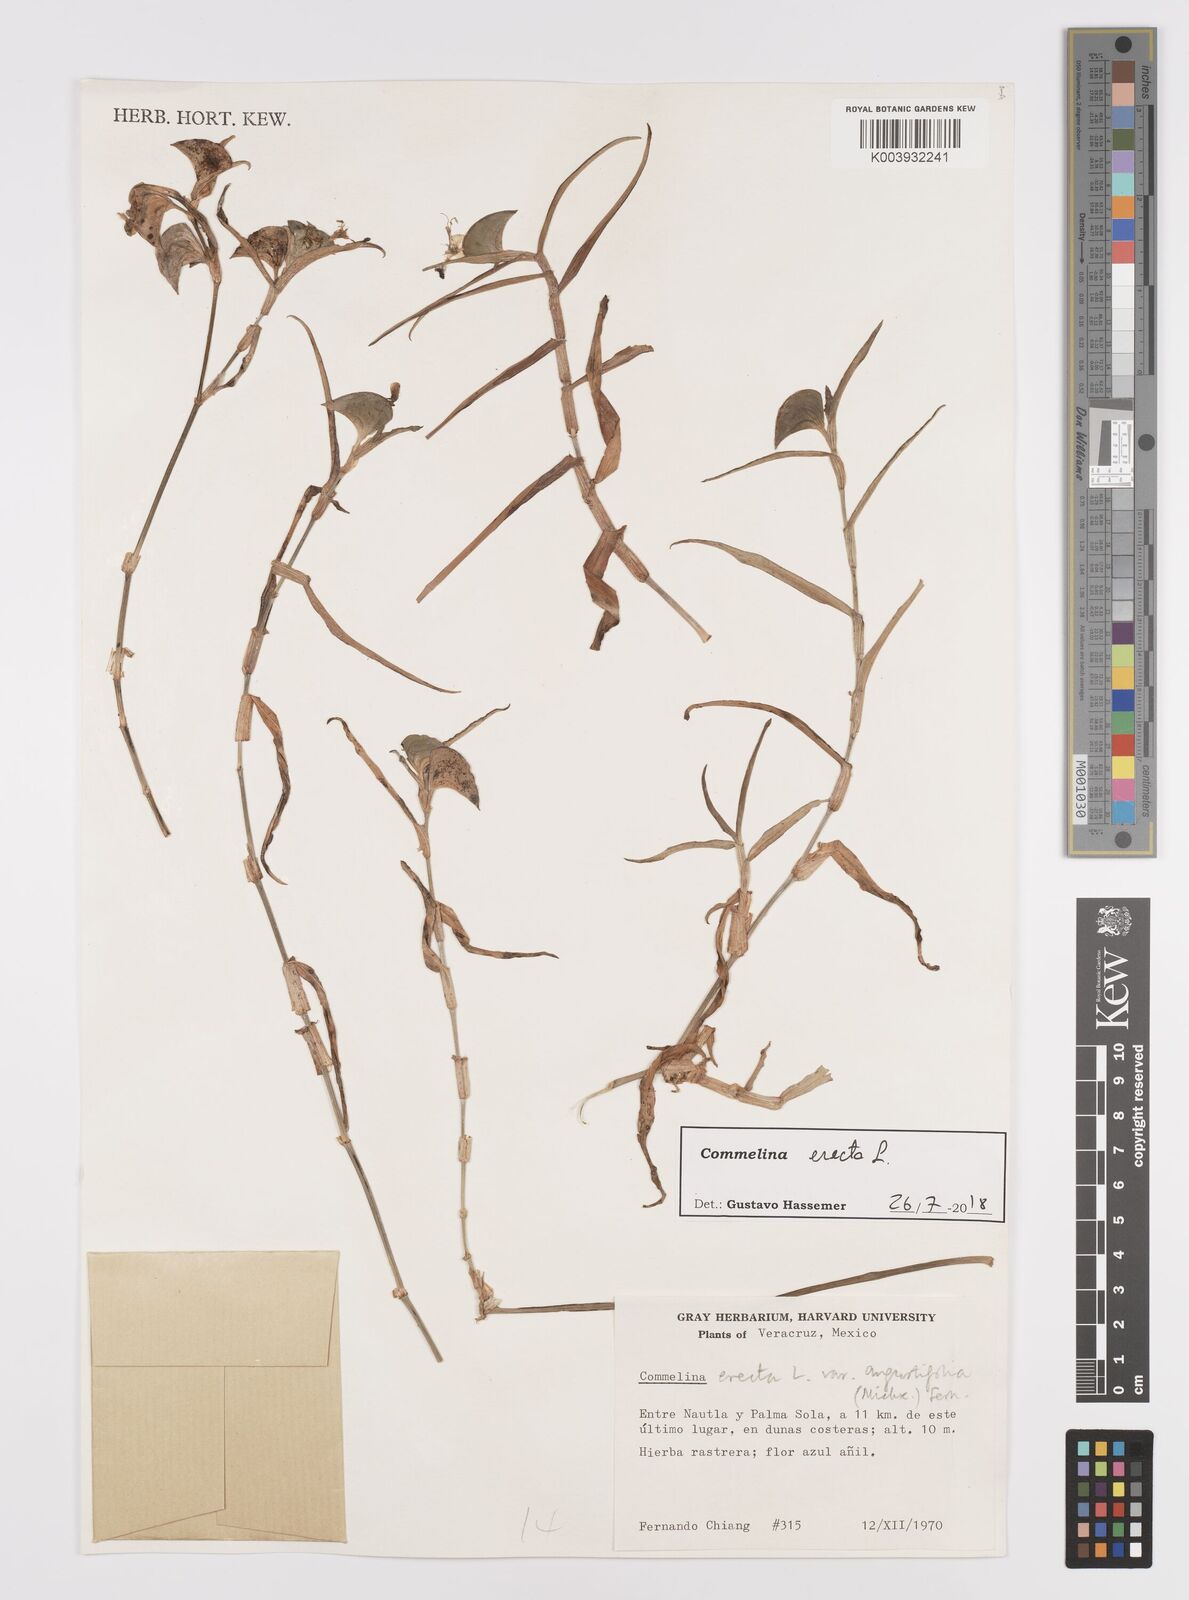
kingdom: Plantae
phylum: Tracheophyta
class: Liliopsida
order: Commelinales
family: Commelinaceae
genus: Commelina
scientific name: Commelina erecta
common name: Blousel blommetjie
